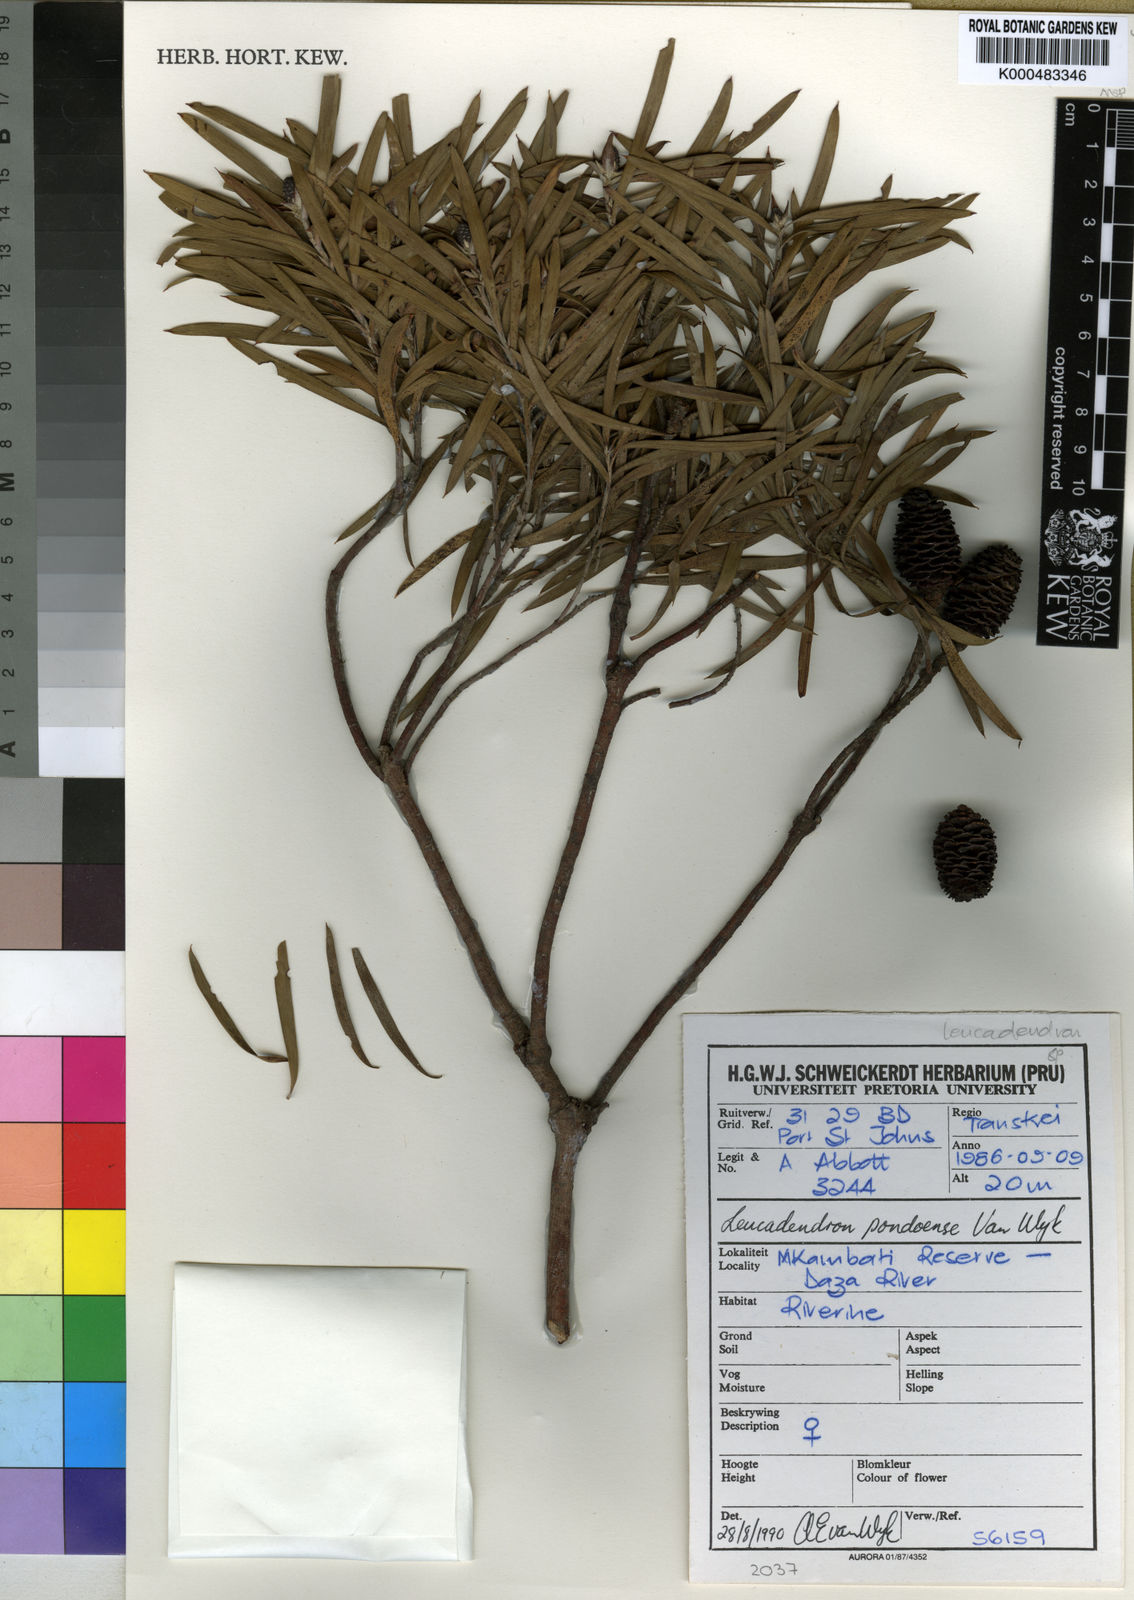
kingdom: Plantae
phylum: Tracheophyta
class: Magnoliopsida
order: Proteales
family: Proteaceae
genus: Leucadendron
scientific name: Leucadendron spissifolium
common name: Spear-leaf conebush
